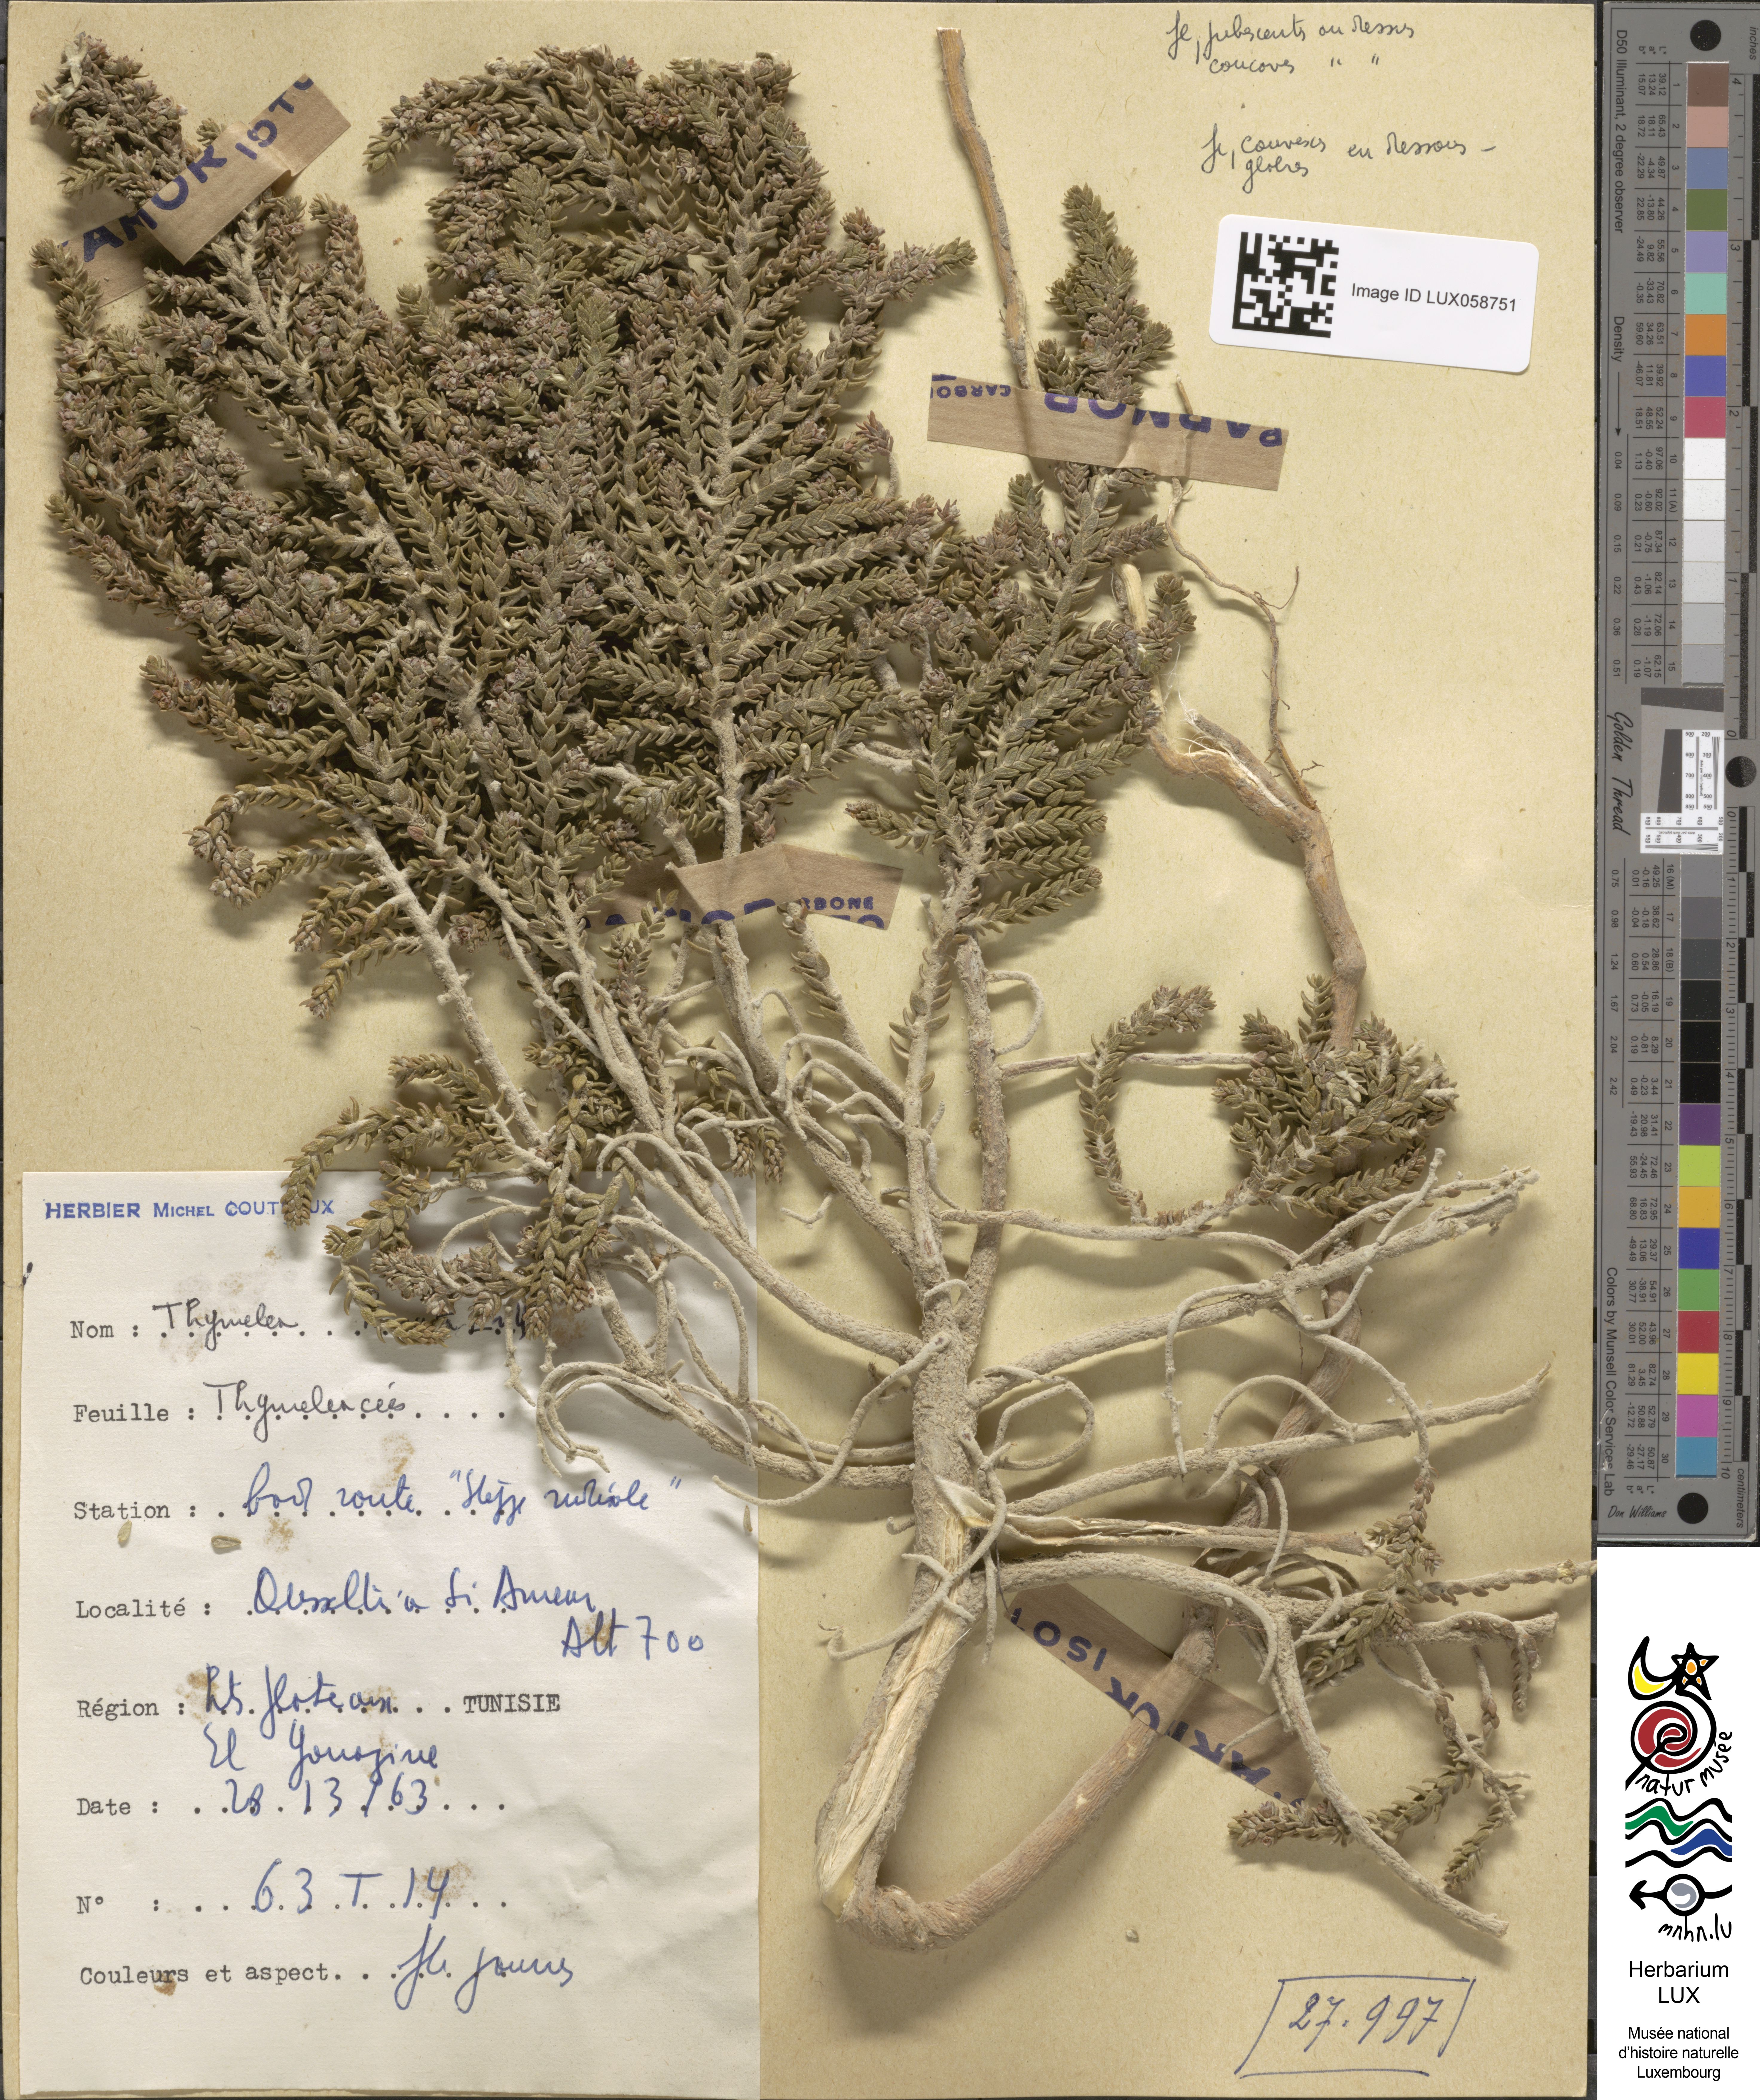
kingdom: Plantae
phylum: Tracheophyta
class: Magnoliopsida
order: Malvales
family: Thymelaeaceae
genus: Thymelaea
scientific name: Thymelaea hirsuta
